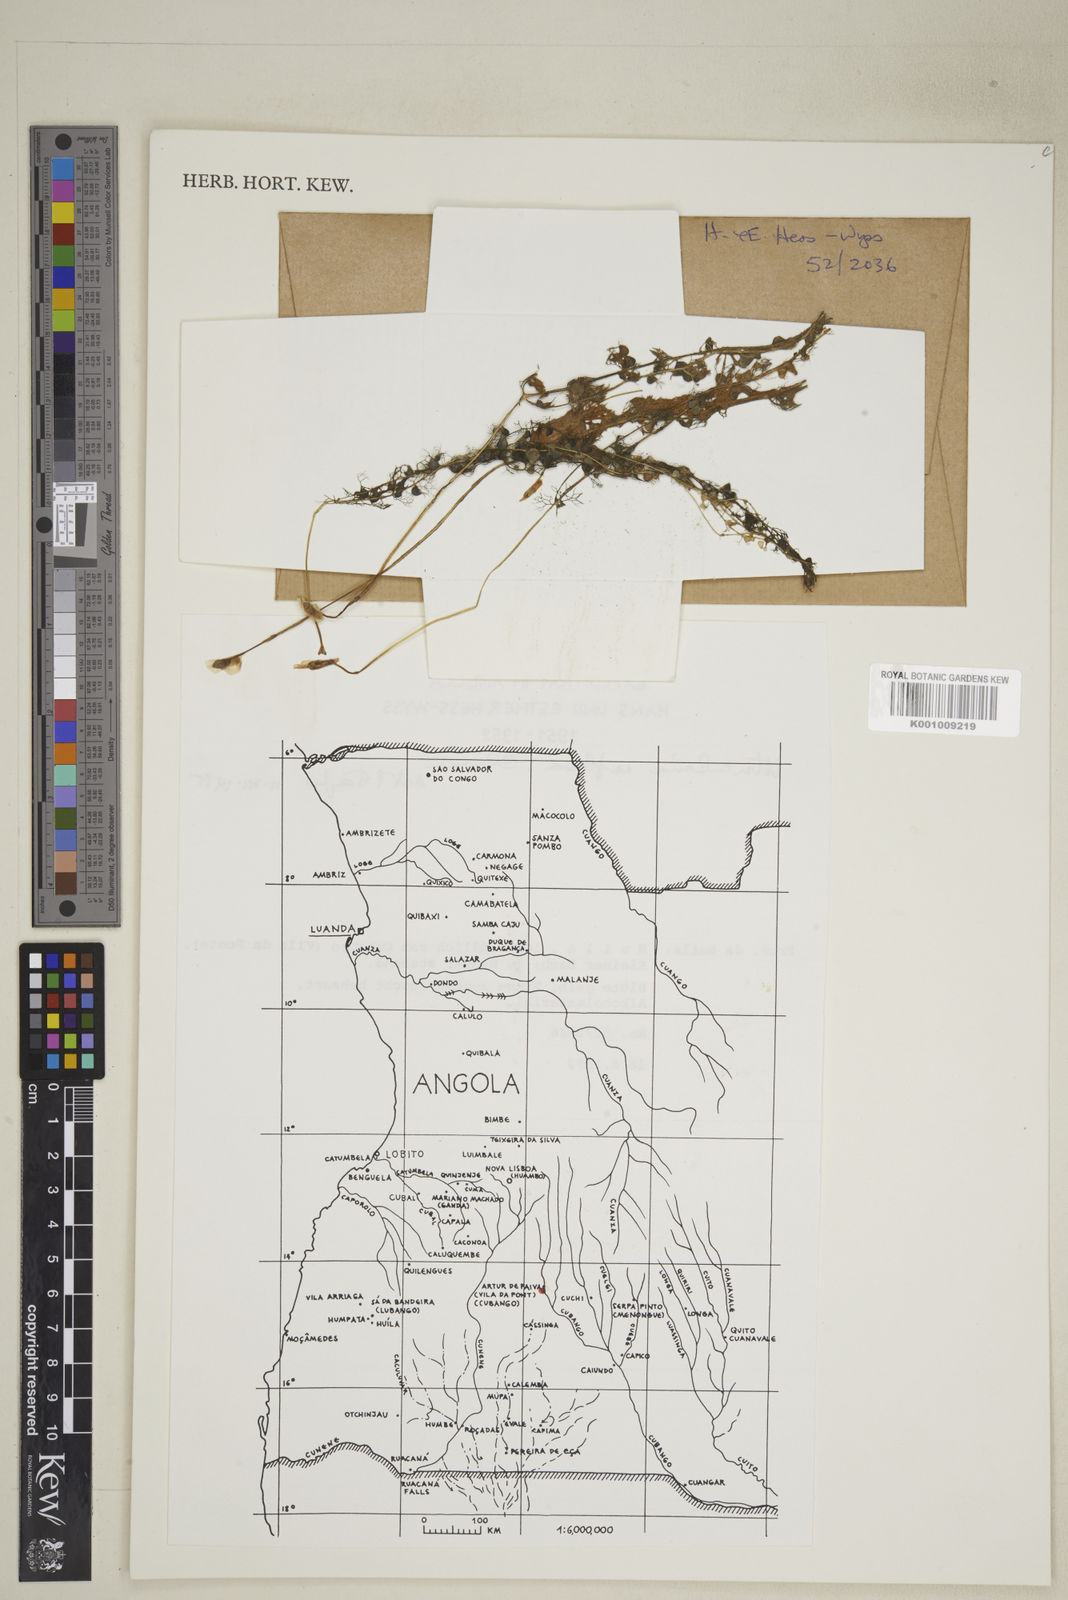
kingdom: Plantae
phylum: Tracheophyta
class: Magnoliopsida
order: Lamiales
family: Lentibulariaceae
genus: Utricularia
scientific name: Utricularia reflexa
